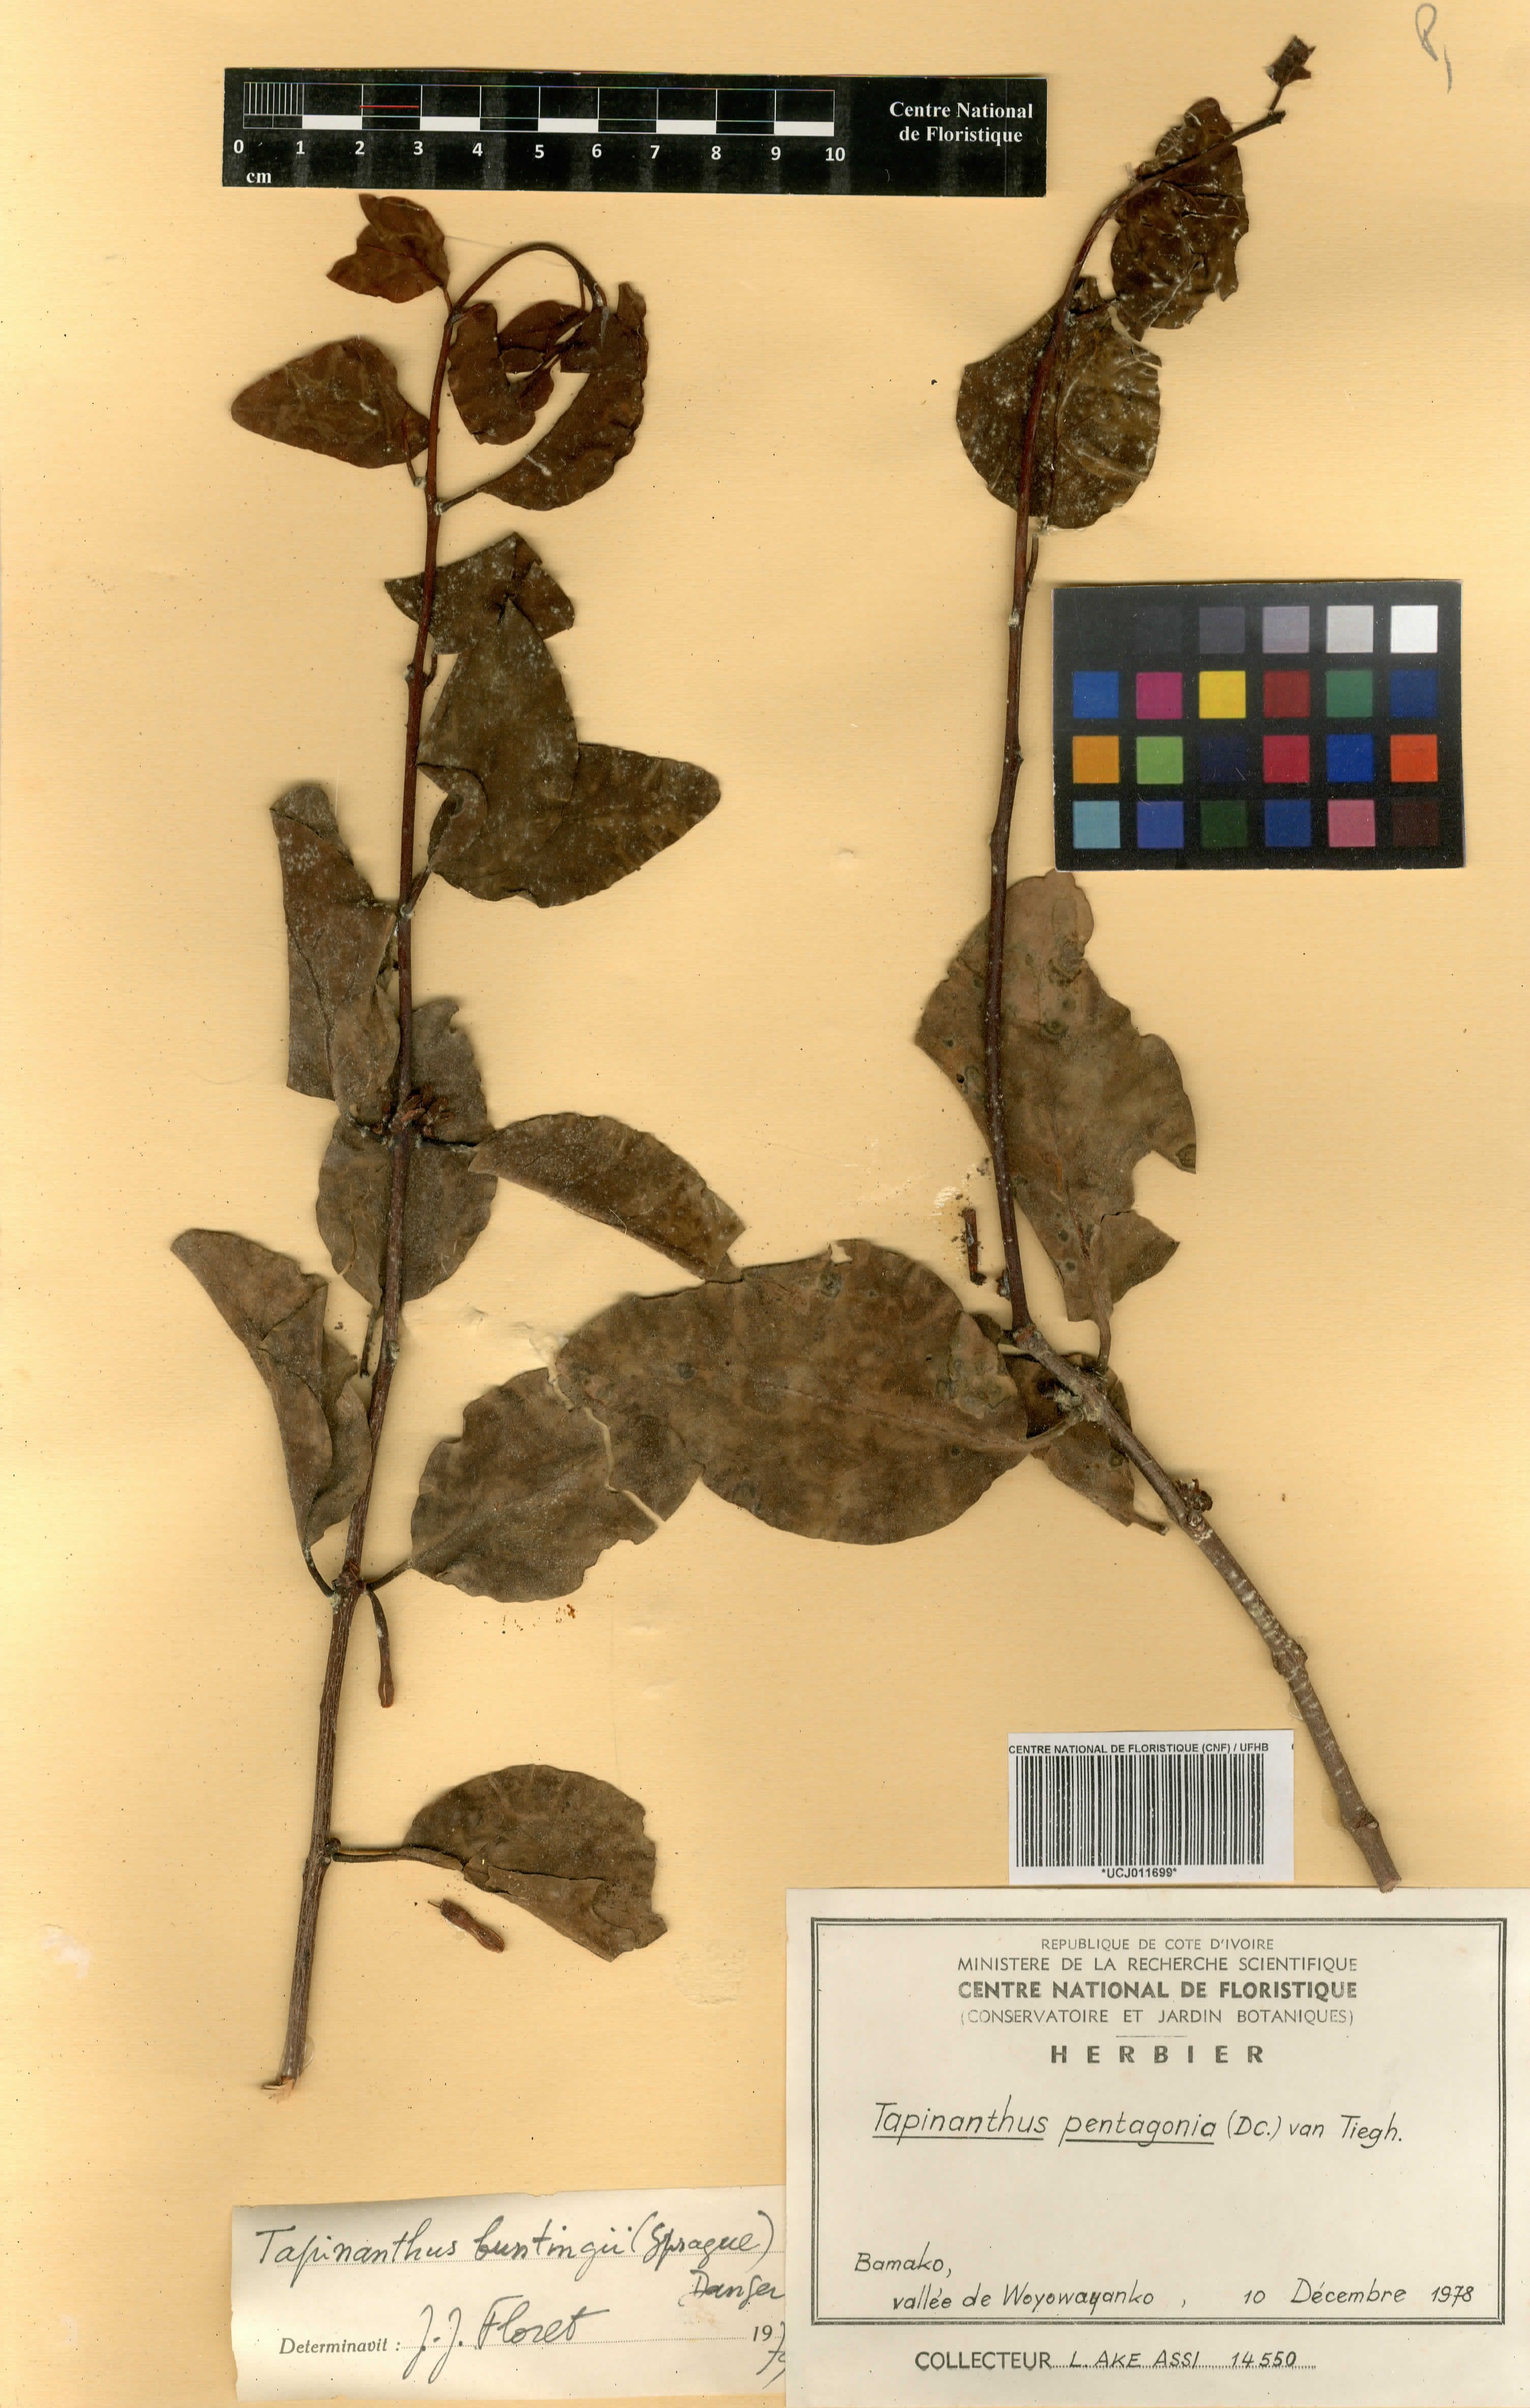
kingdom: Plantae
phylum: Tracheophyta
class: Magnoliopsida
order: Santalales
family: Loranthaceae
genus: Tapinanthus
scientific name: Tapinanthus pentagonia
